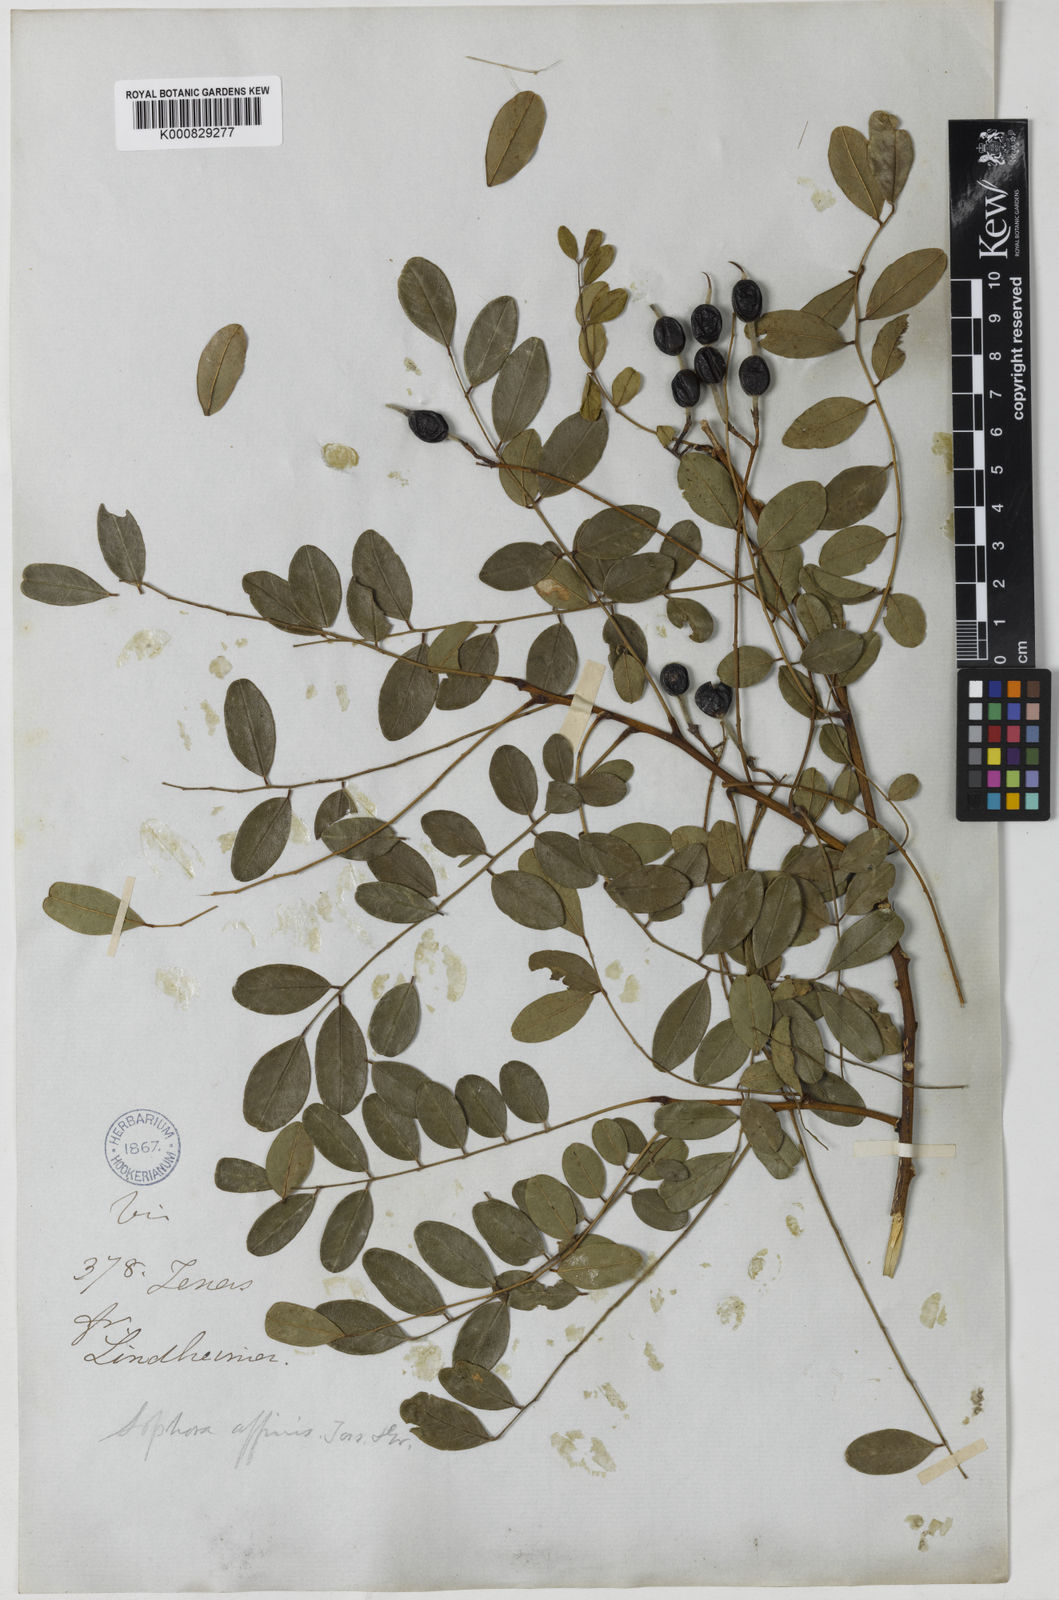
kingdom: Plantae
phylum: Tracheophyta
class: Magnoliopsida
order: Fabales
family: Fabaceae
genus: Styphnolobium
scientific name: Styphnolobium affine
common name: Texas sophora
